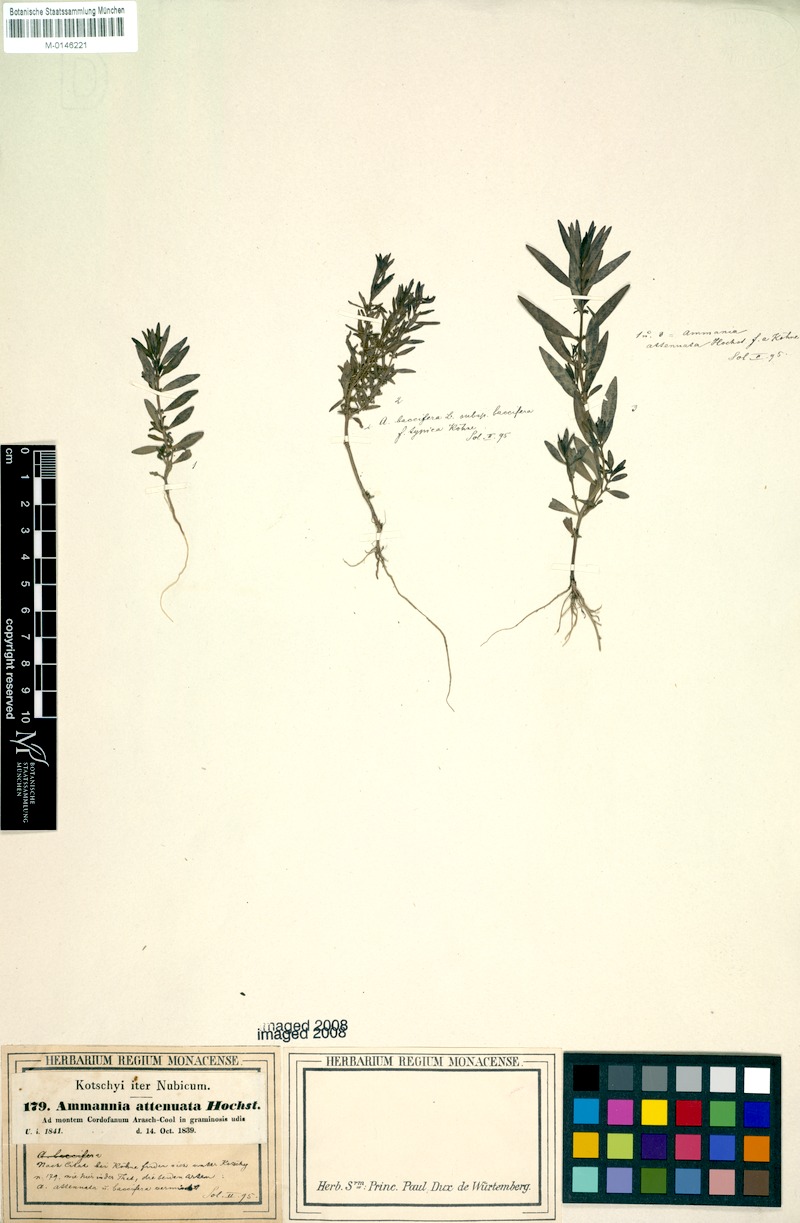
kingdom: Plantae
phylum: Tracheophyta
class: Magnoliopsida
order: Myrtales
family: Lythraceae
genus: Ammannia
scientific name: Ammannia baccifera
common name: Blistering ammania
